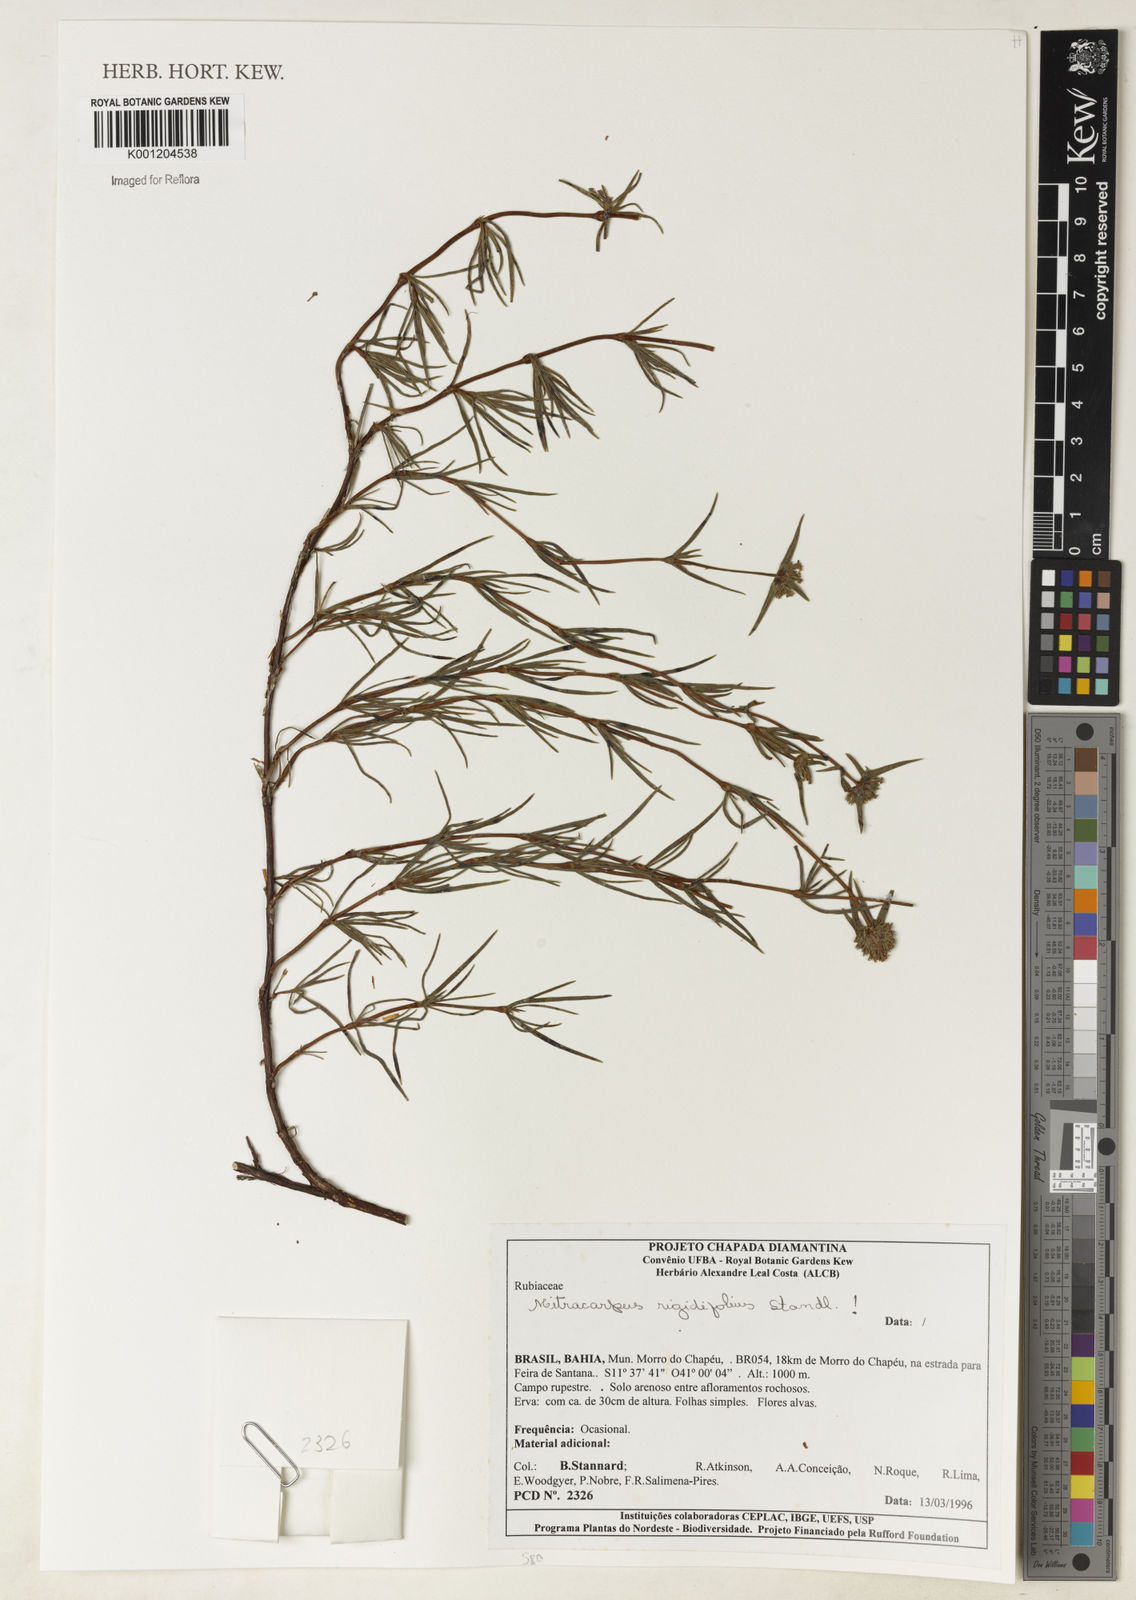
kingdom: Plantae
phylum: Tracheophyta
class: Magnoliopsida
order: Gentianales
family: Rubiaceae
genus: Mitracarpus
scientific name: Mitracarpus rigidifolius
